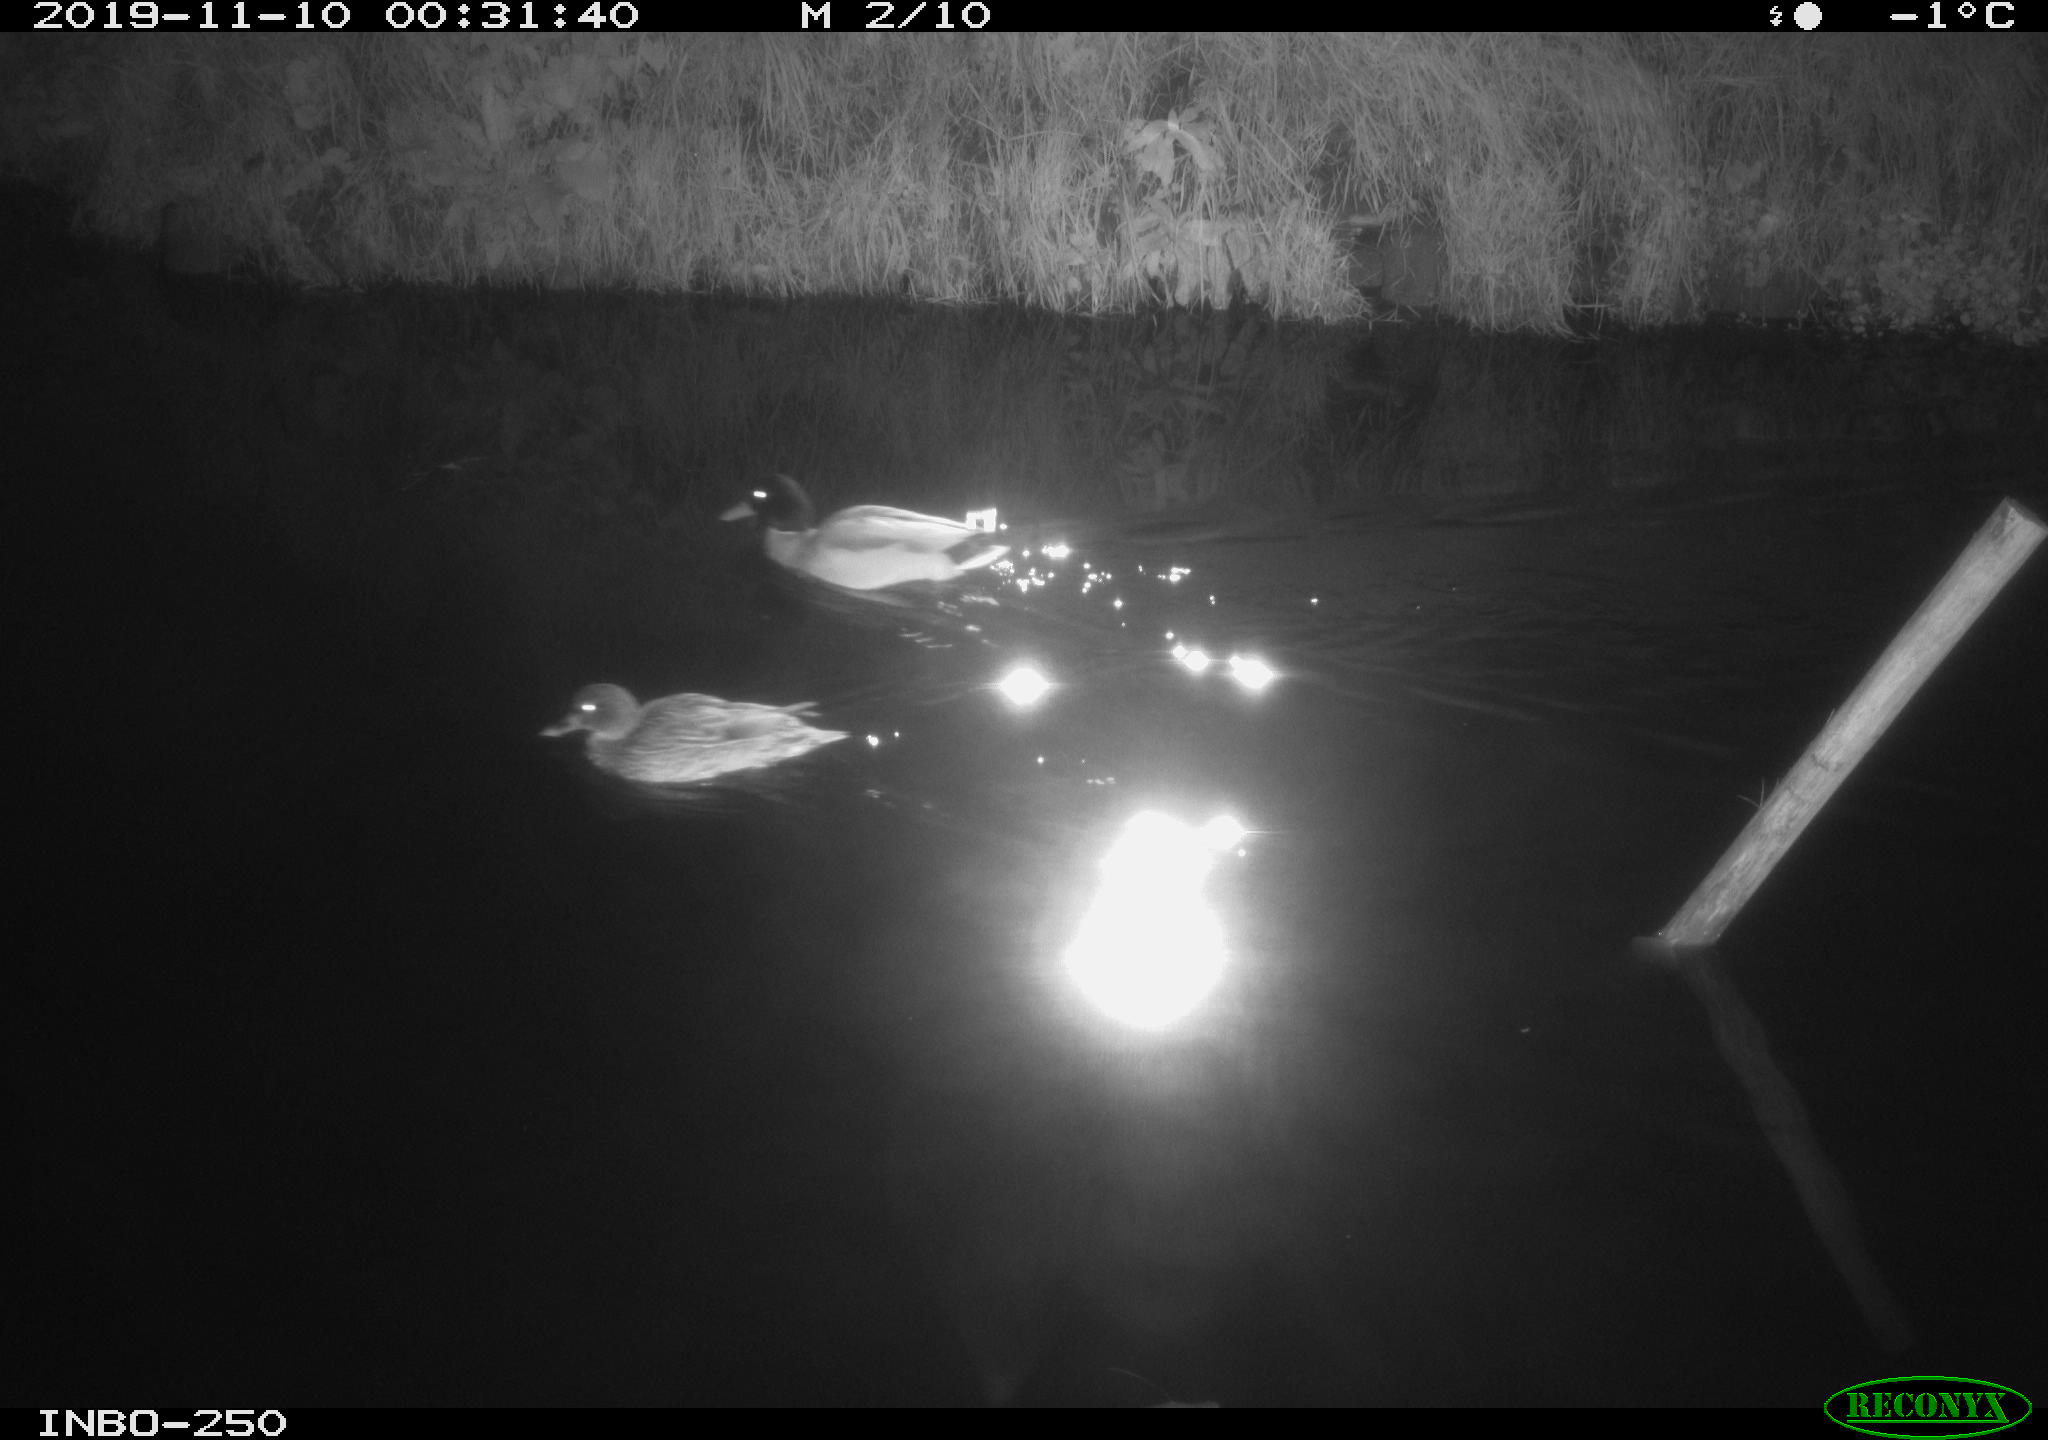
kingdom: Animalia
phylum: Chordata
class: Aves
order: Anseriformes
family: Anatidae
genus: Anas
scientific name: Anas platyrhynchos
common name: Mallard
